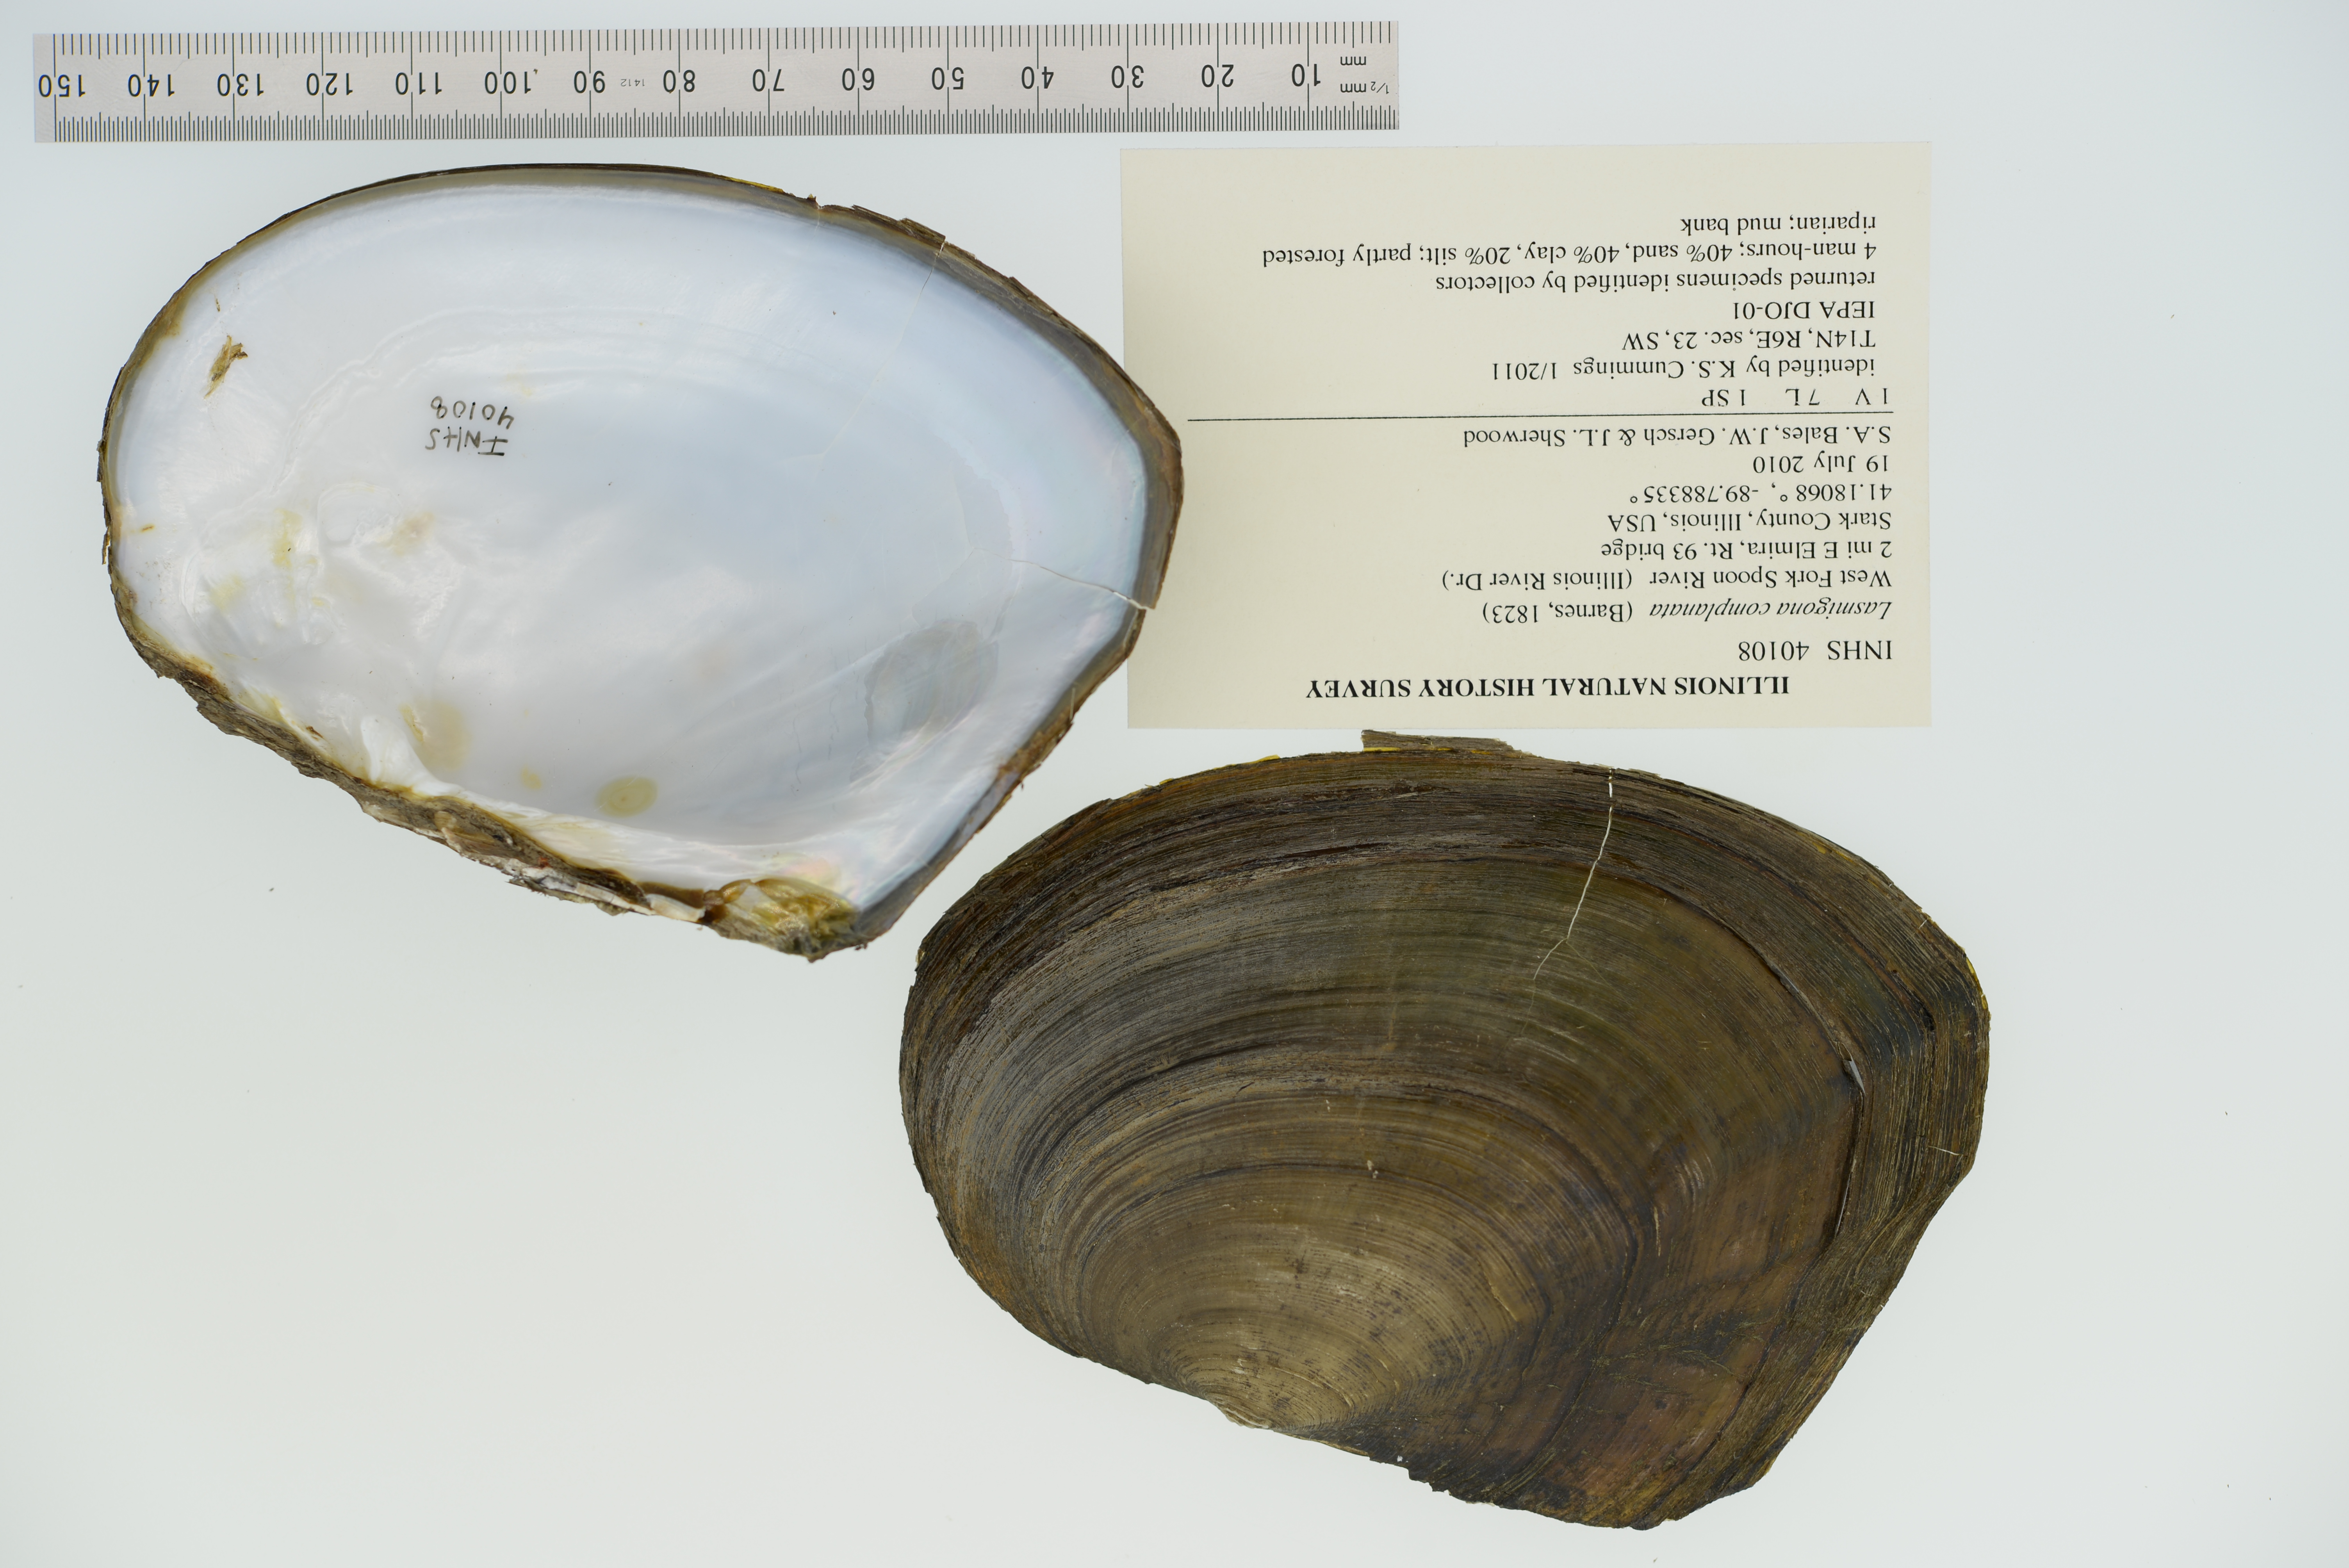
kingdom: Animalia
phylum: Mollusca
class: Bivalvia
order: Unionida
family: Unionidae
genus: Lasmigona
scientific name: Lasmigona complanata
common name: White heelsplitter
